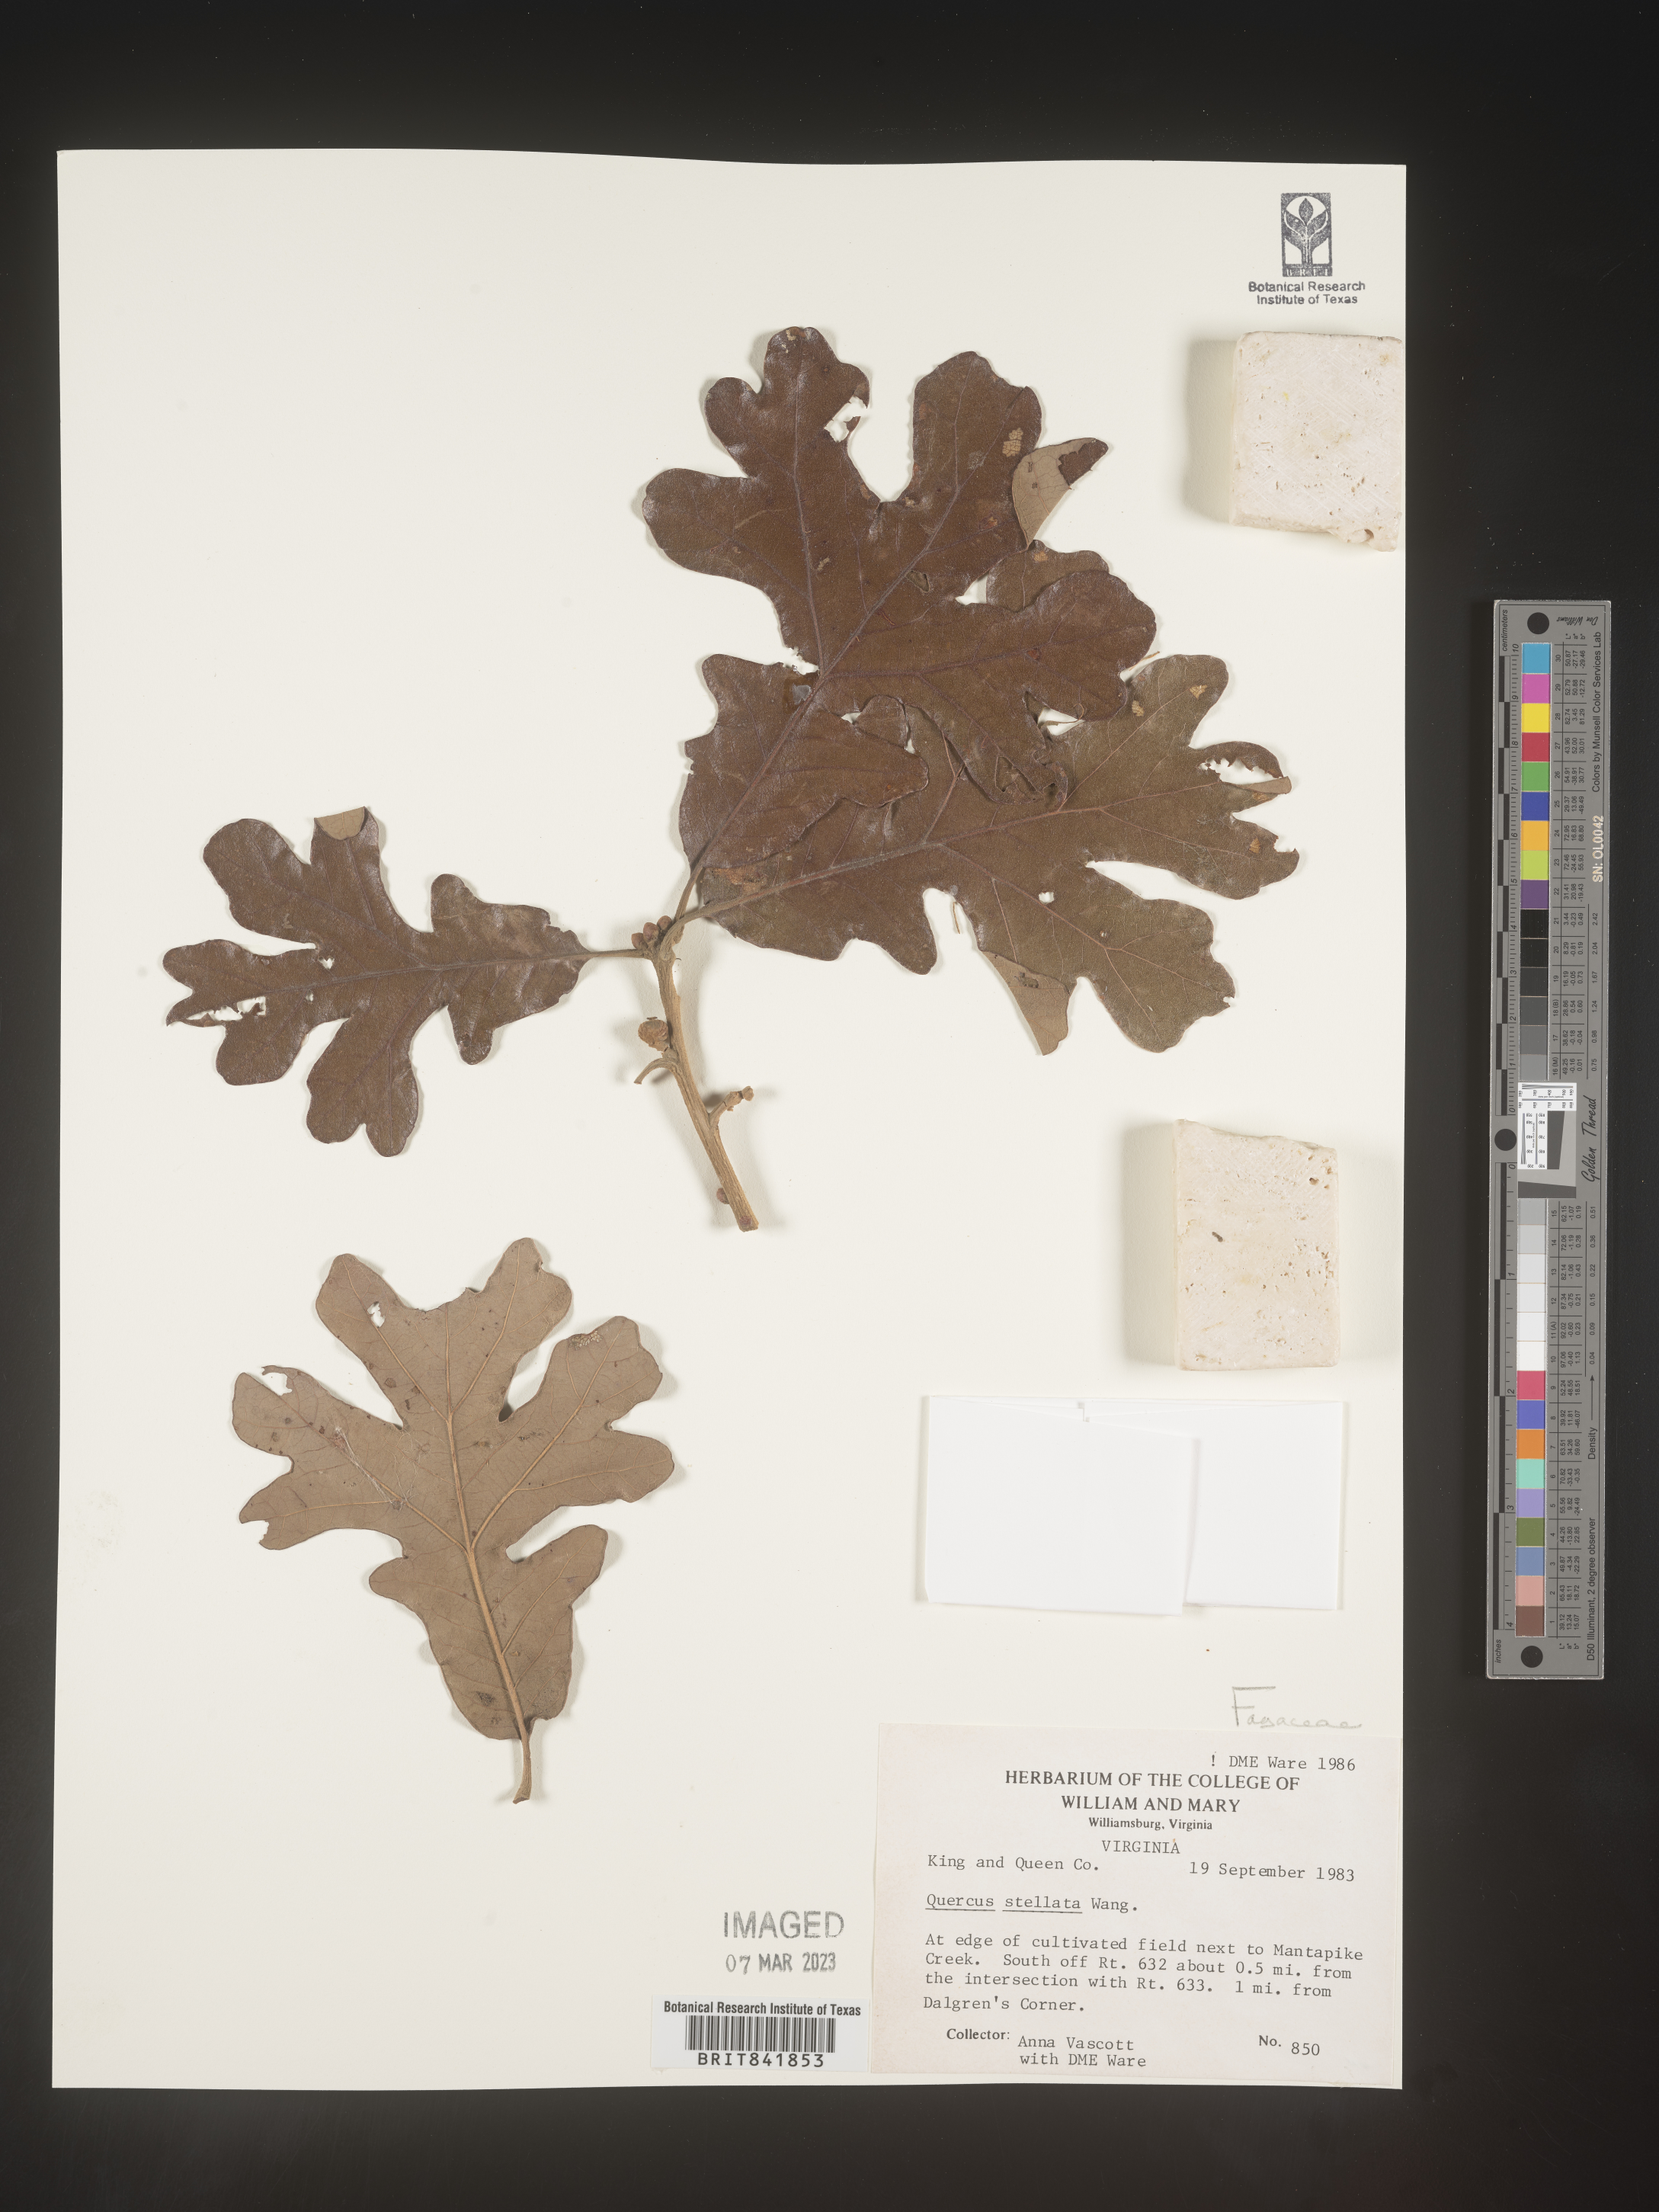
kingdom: Plantae
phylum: Tracheophyta
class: Magnoliopsida
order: Fagales
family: Fagaceae
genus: Quercus
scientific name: Quercus stellata
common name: Post oak
